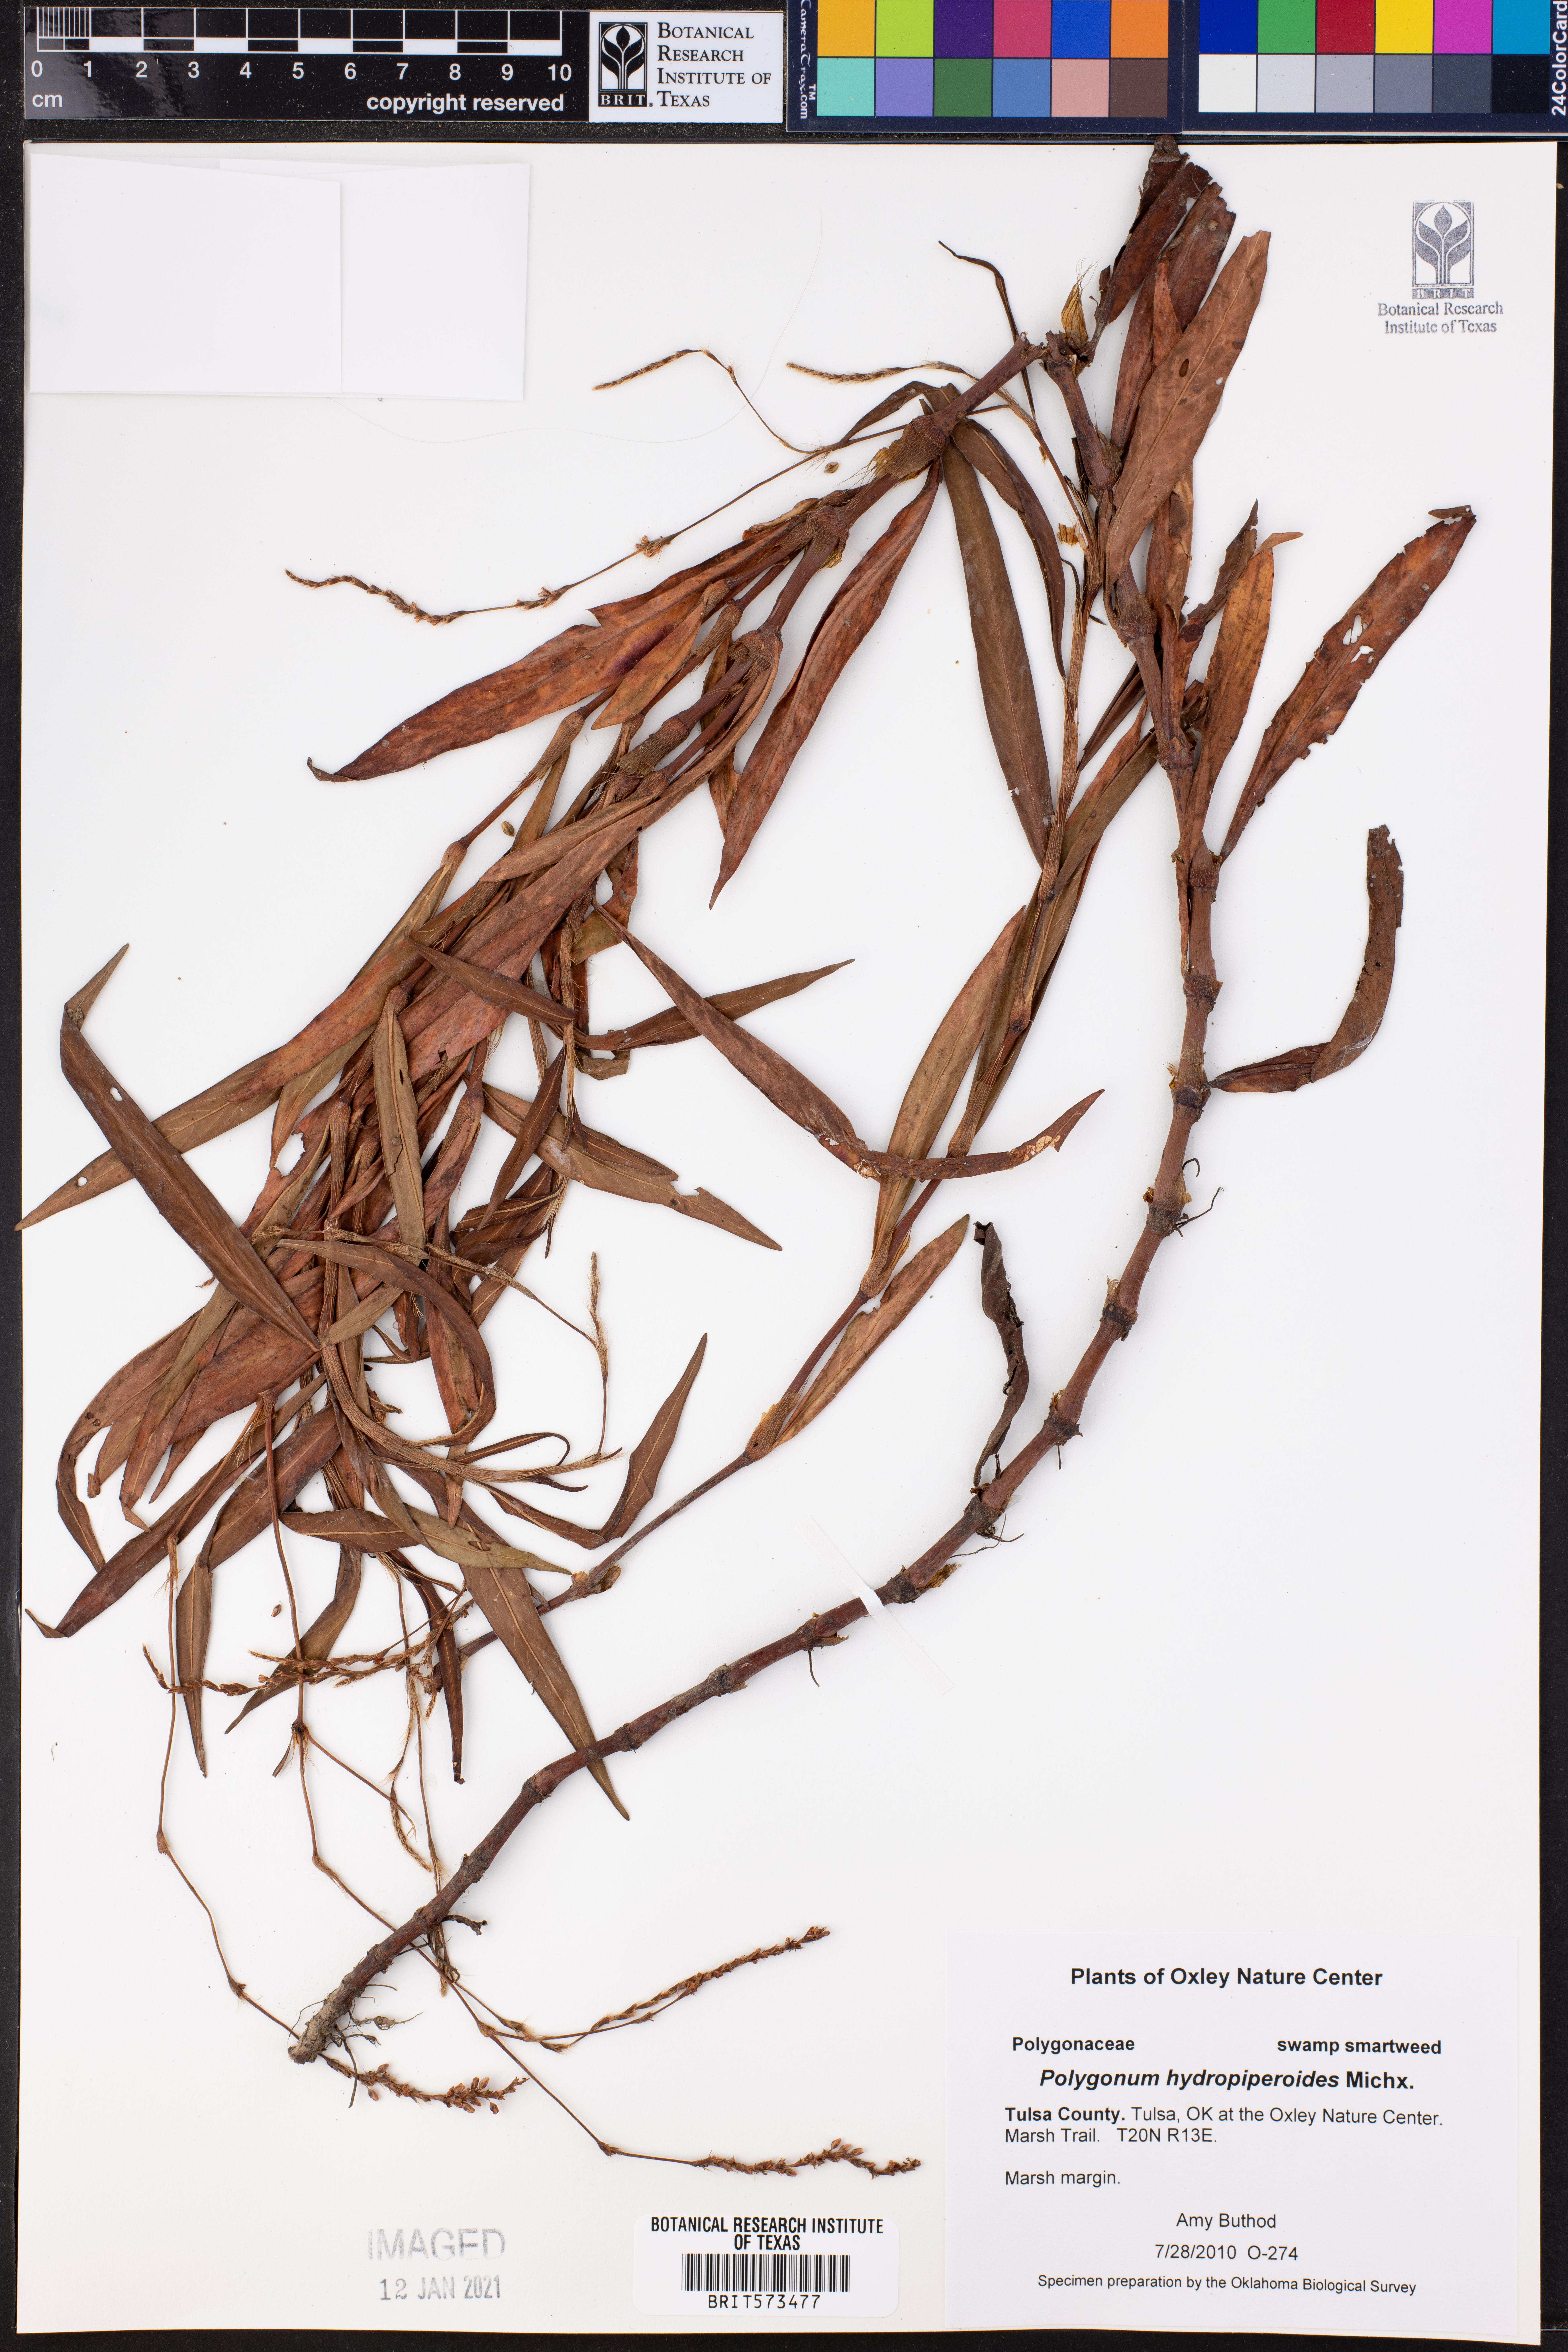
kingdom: Plantae
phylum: Tracheophyta
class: Magnoliopsida
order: Caryophyllales
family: Polygonaceae
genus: Persicaria
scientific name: Persicaria hydropiperoides
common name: Swamp smartweed
